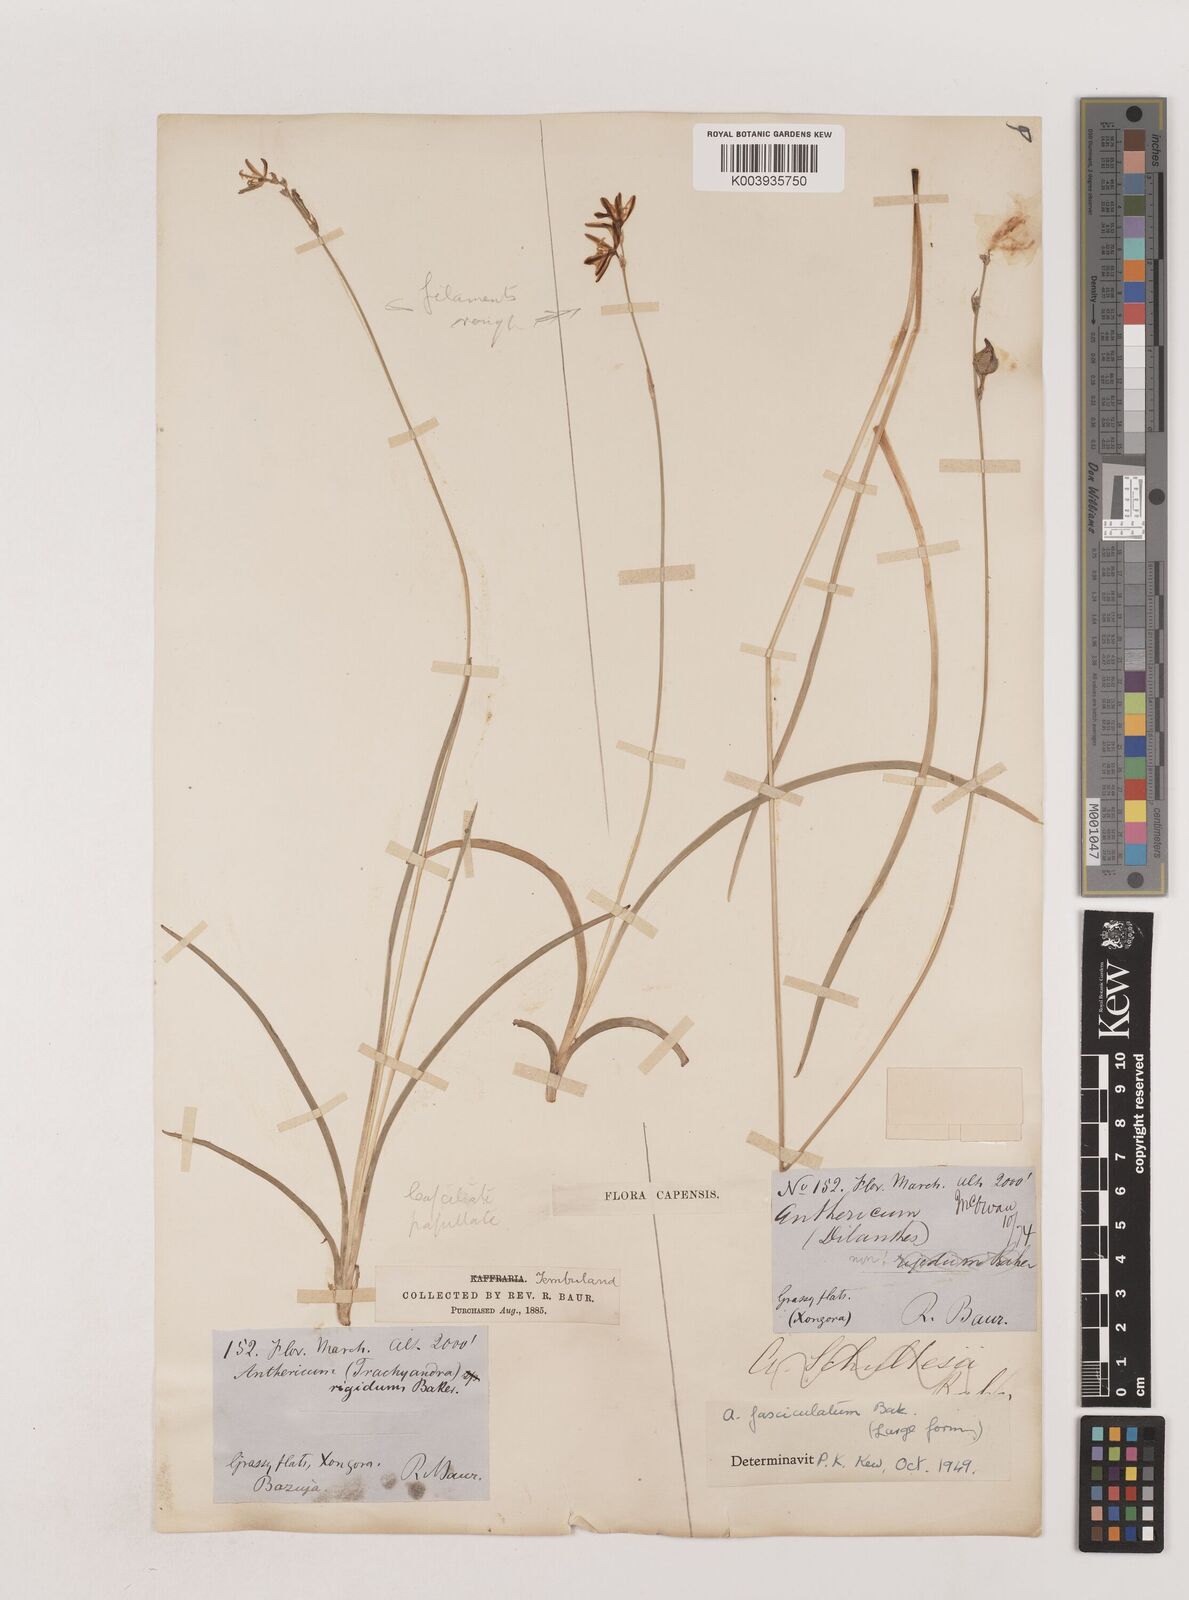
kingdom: Plantae
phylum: Tracheophyta
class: Liliopsida
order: Asparagales
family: Asparagaceae
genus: Chlorophytum
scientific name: Chlorophytum fasciculatum
